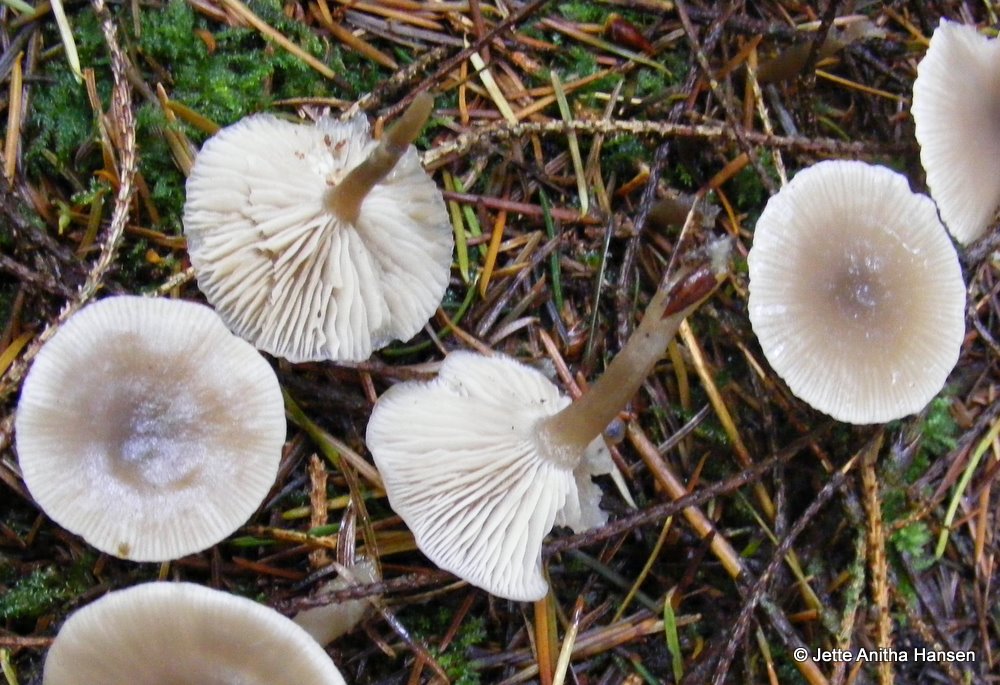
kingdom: Fungi
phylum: Basidiomycota
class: Agaricomycetes
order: Agaricales
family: Tricholomataceae
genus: Clitocybe
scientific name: Clitocybe vibecina
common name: randstribet tragthat
